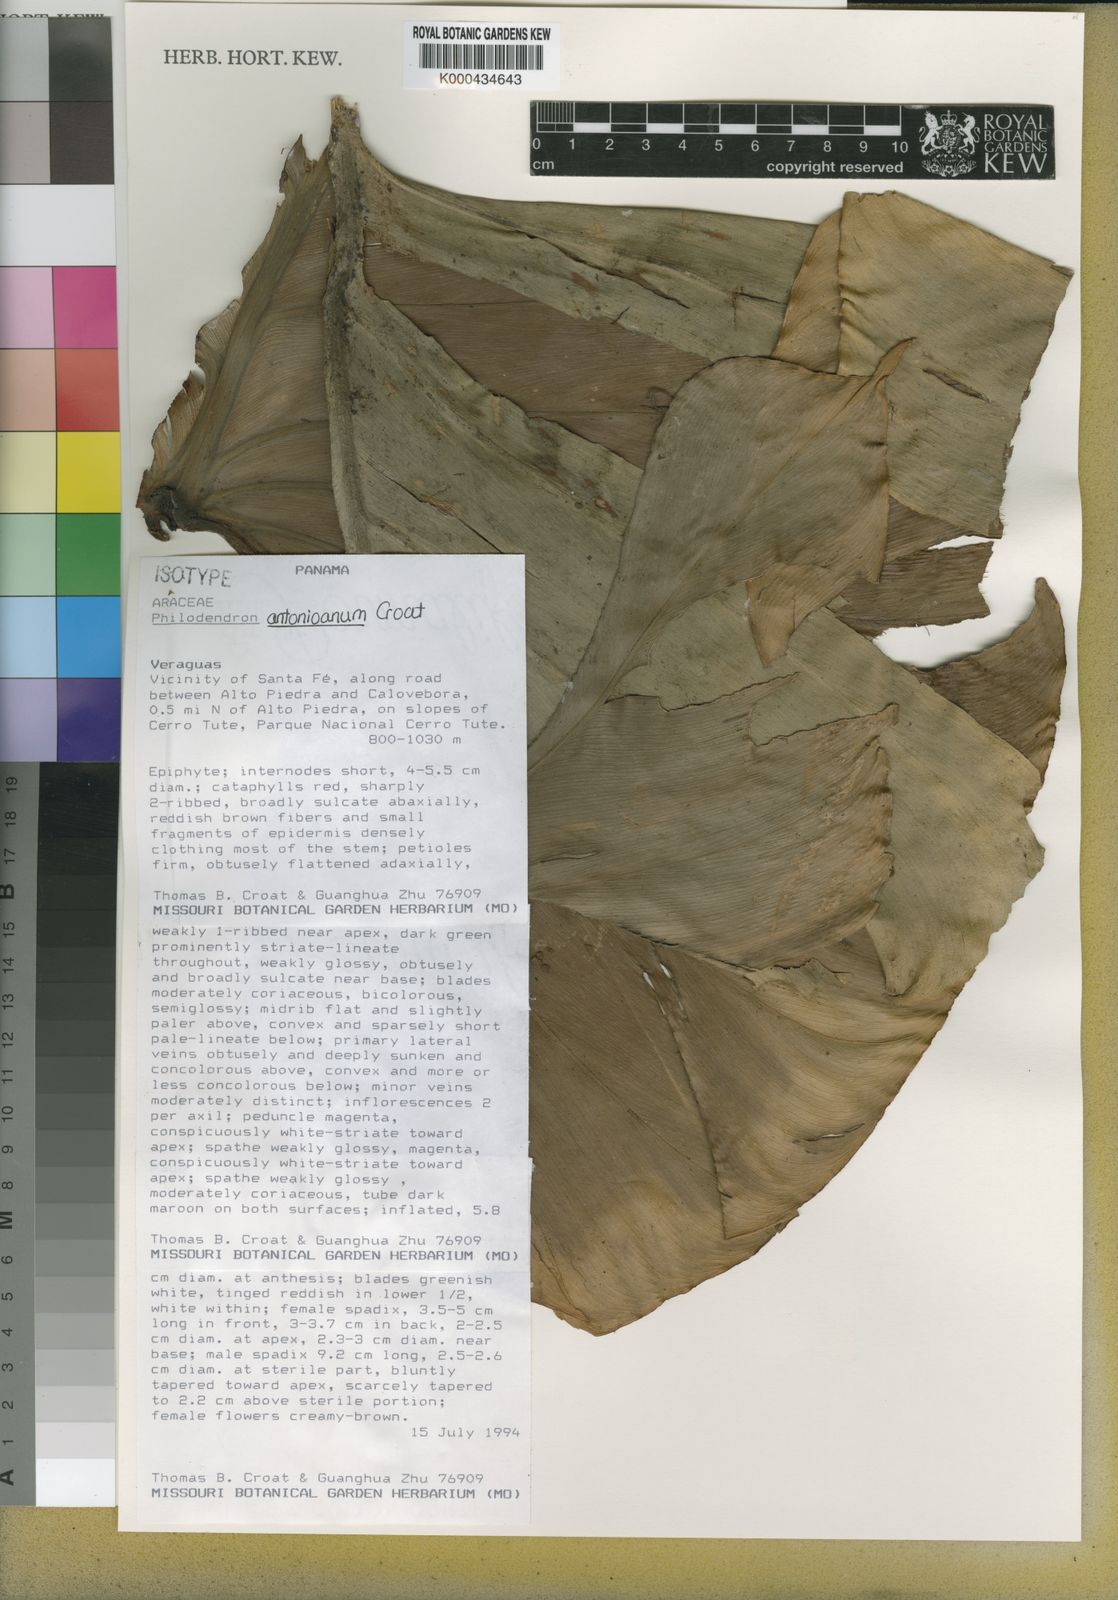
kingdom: Plantae
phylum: Tracheophyta
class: Liliopsida
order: Alismatales
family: Araceae
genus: Philodendron
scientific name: Philodendron antonioanum
